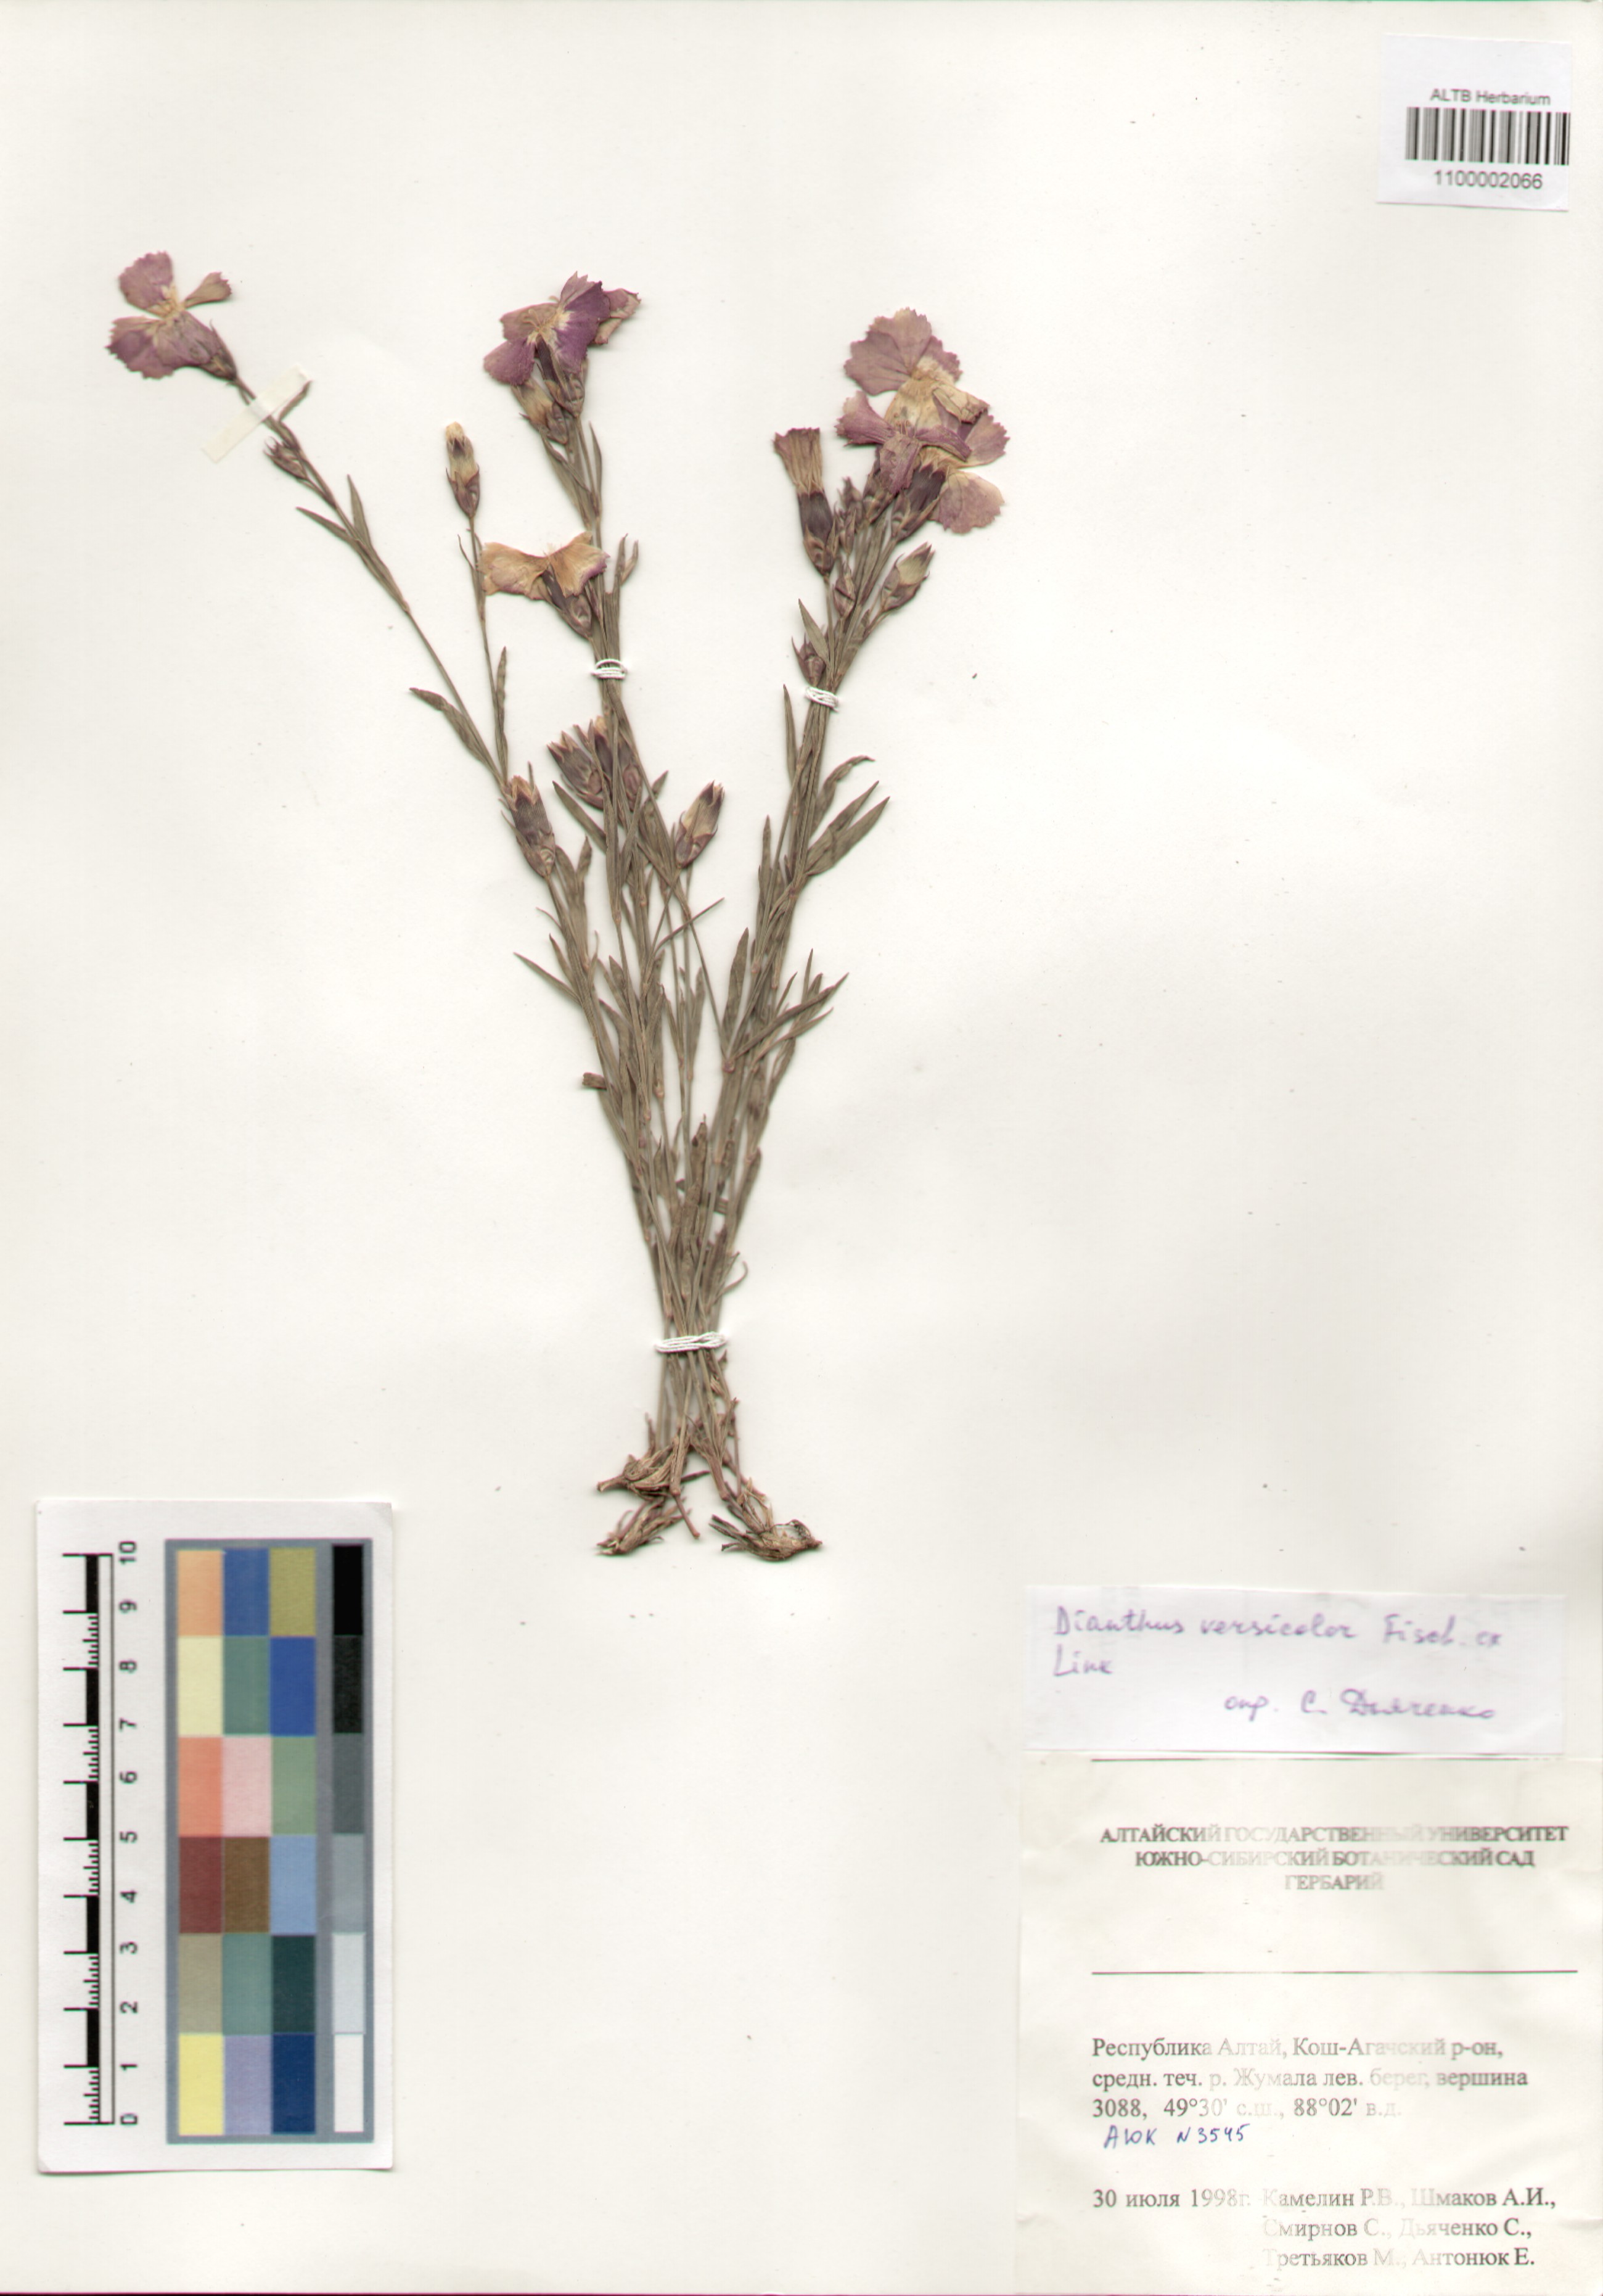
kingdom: Plantae
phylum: Tracheophyta
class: Magnoliopsida
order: Caryophyllales
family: Caryophyllaceae
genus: Dianthus
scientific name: Dianthus chinensis
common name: Rainbow pink
